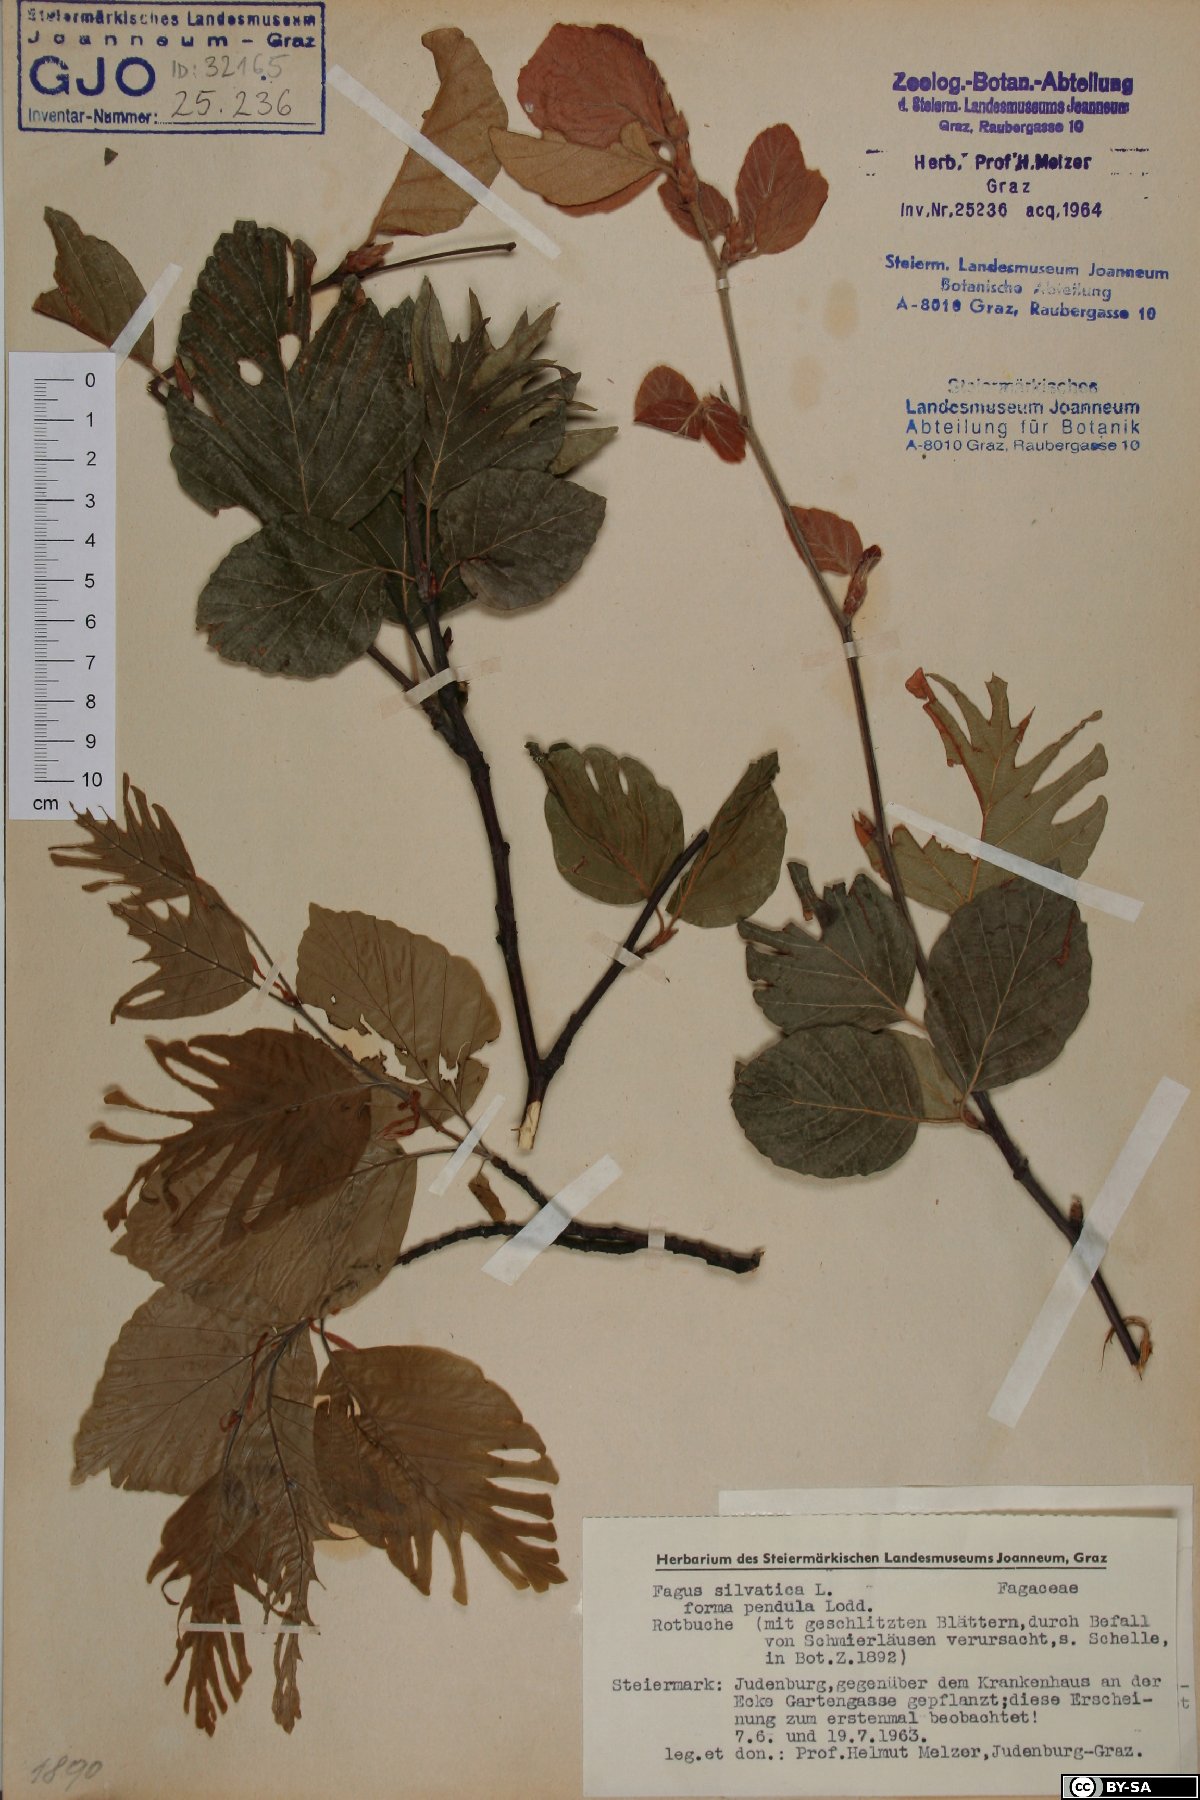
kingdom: Plantae
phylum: Tracheophyta
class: Magnoliopsida
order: Fagales
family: Fagaceae
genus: Fagus
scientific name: Fagus sylvatica
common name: Beech
